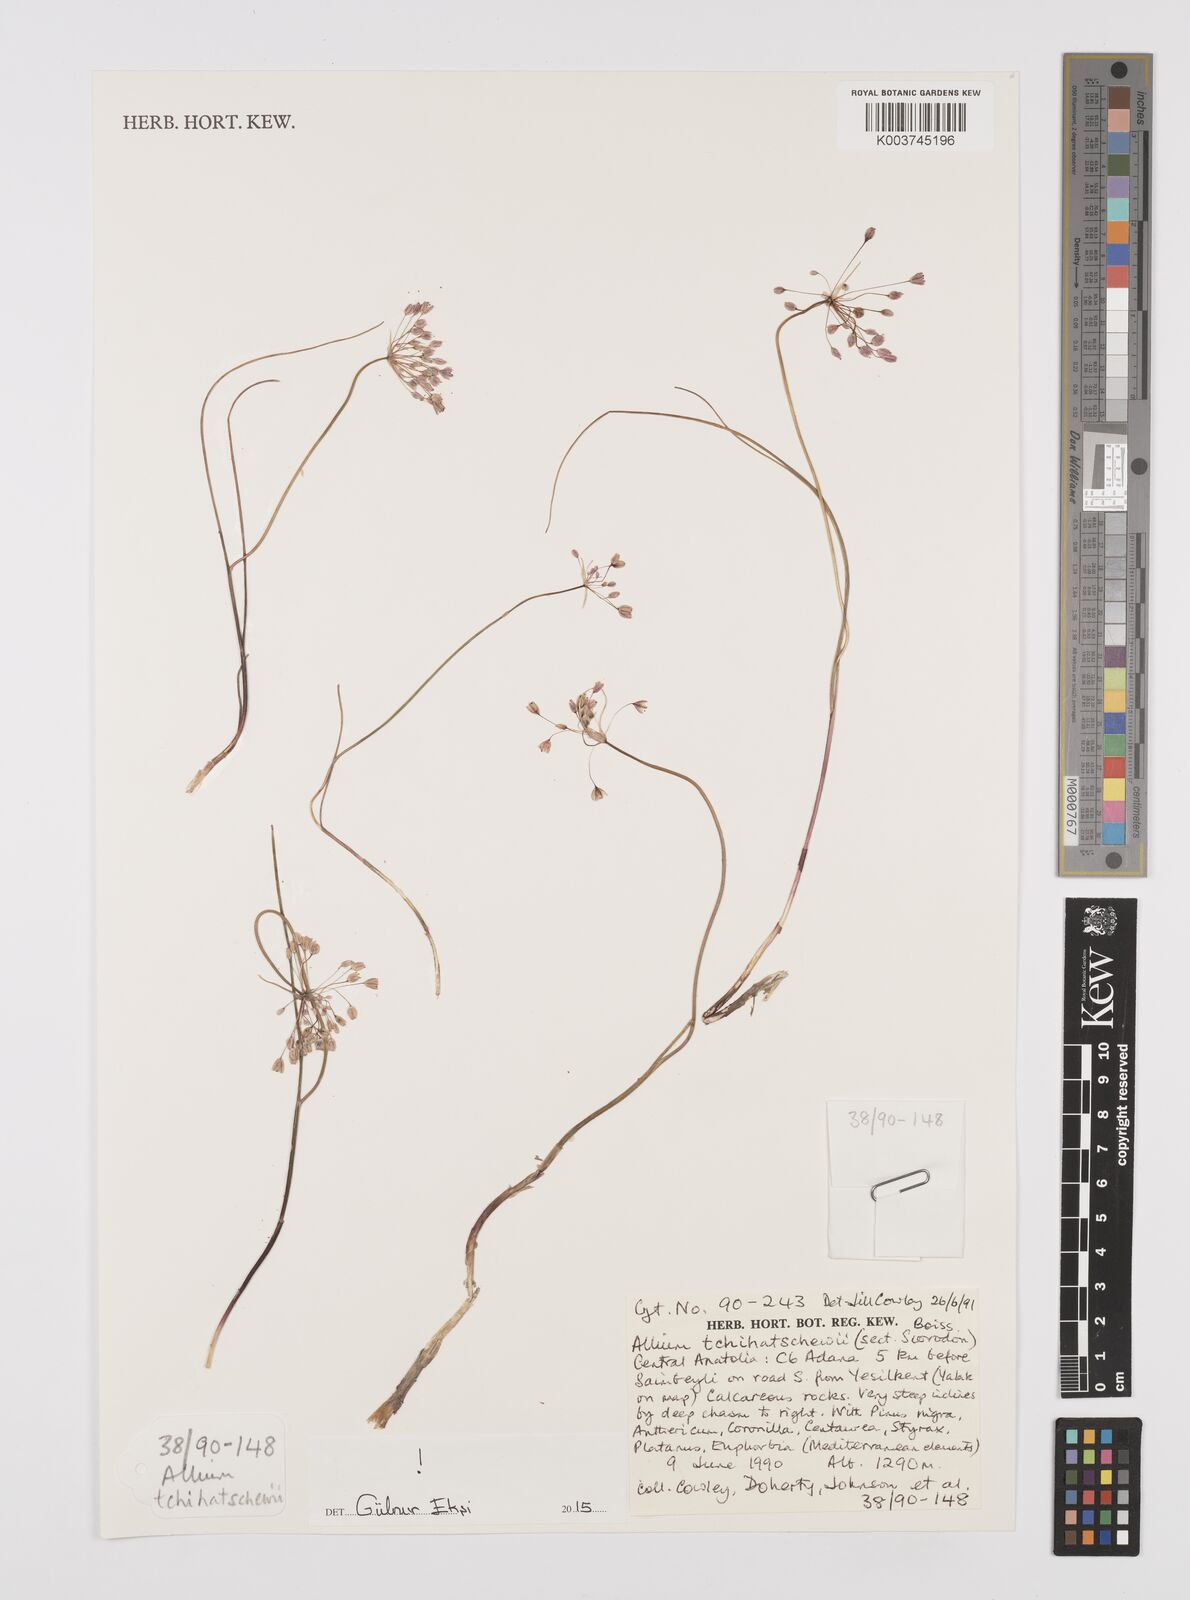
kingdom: Plantae
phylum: Tracheophyta
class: Liliopsida
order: Asparagales
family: Amaryllidaceae
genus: Allium
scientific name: Allium tchihatschewii
